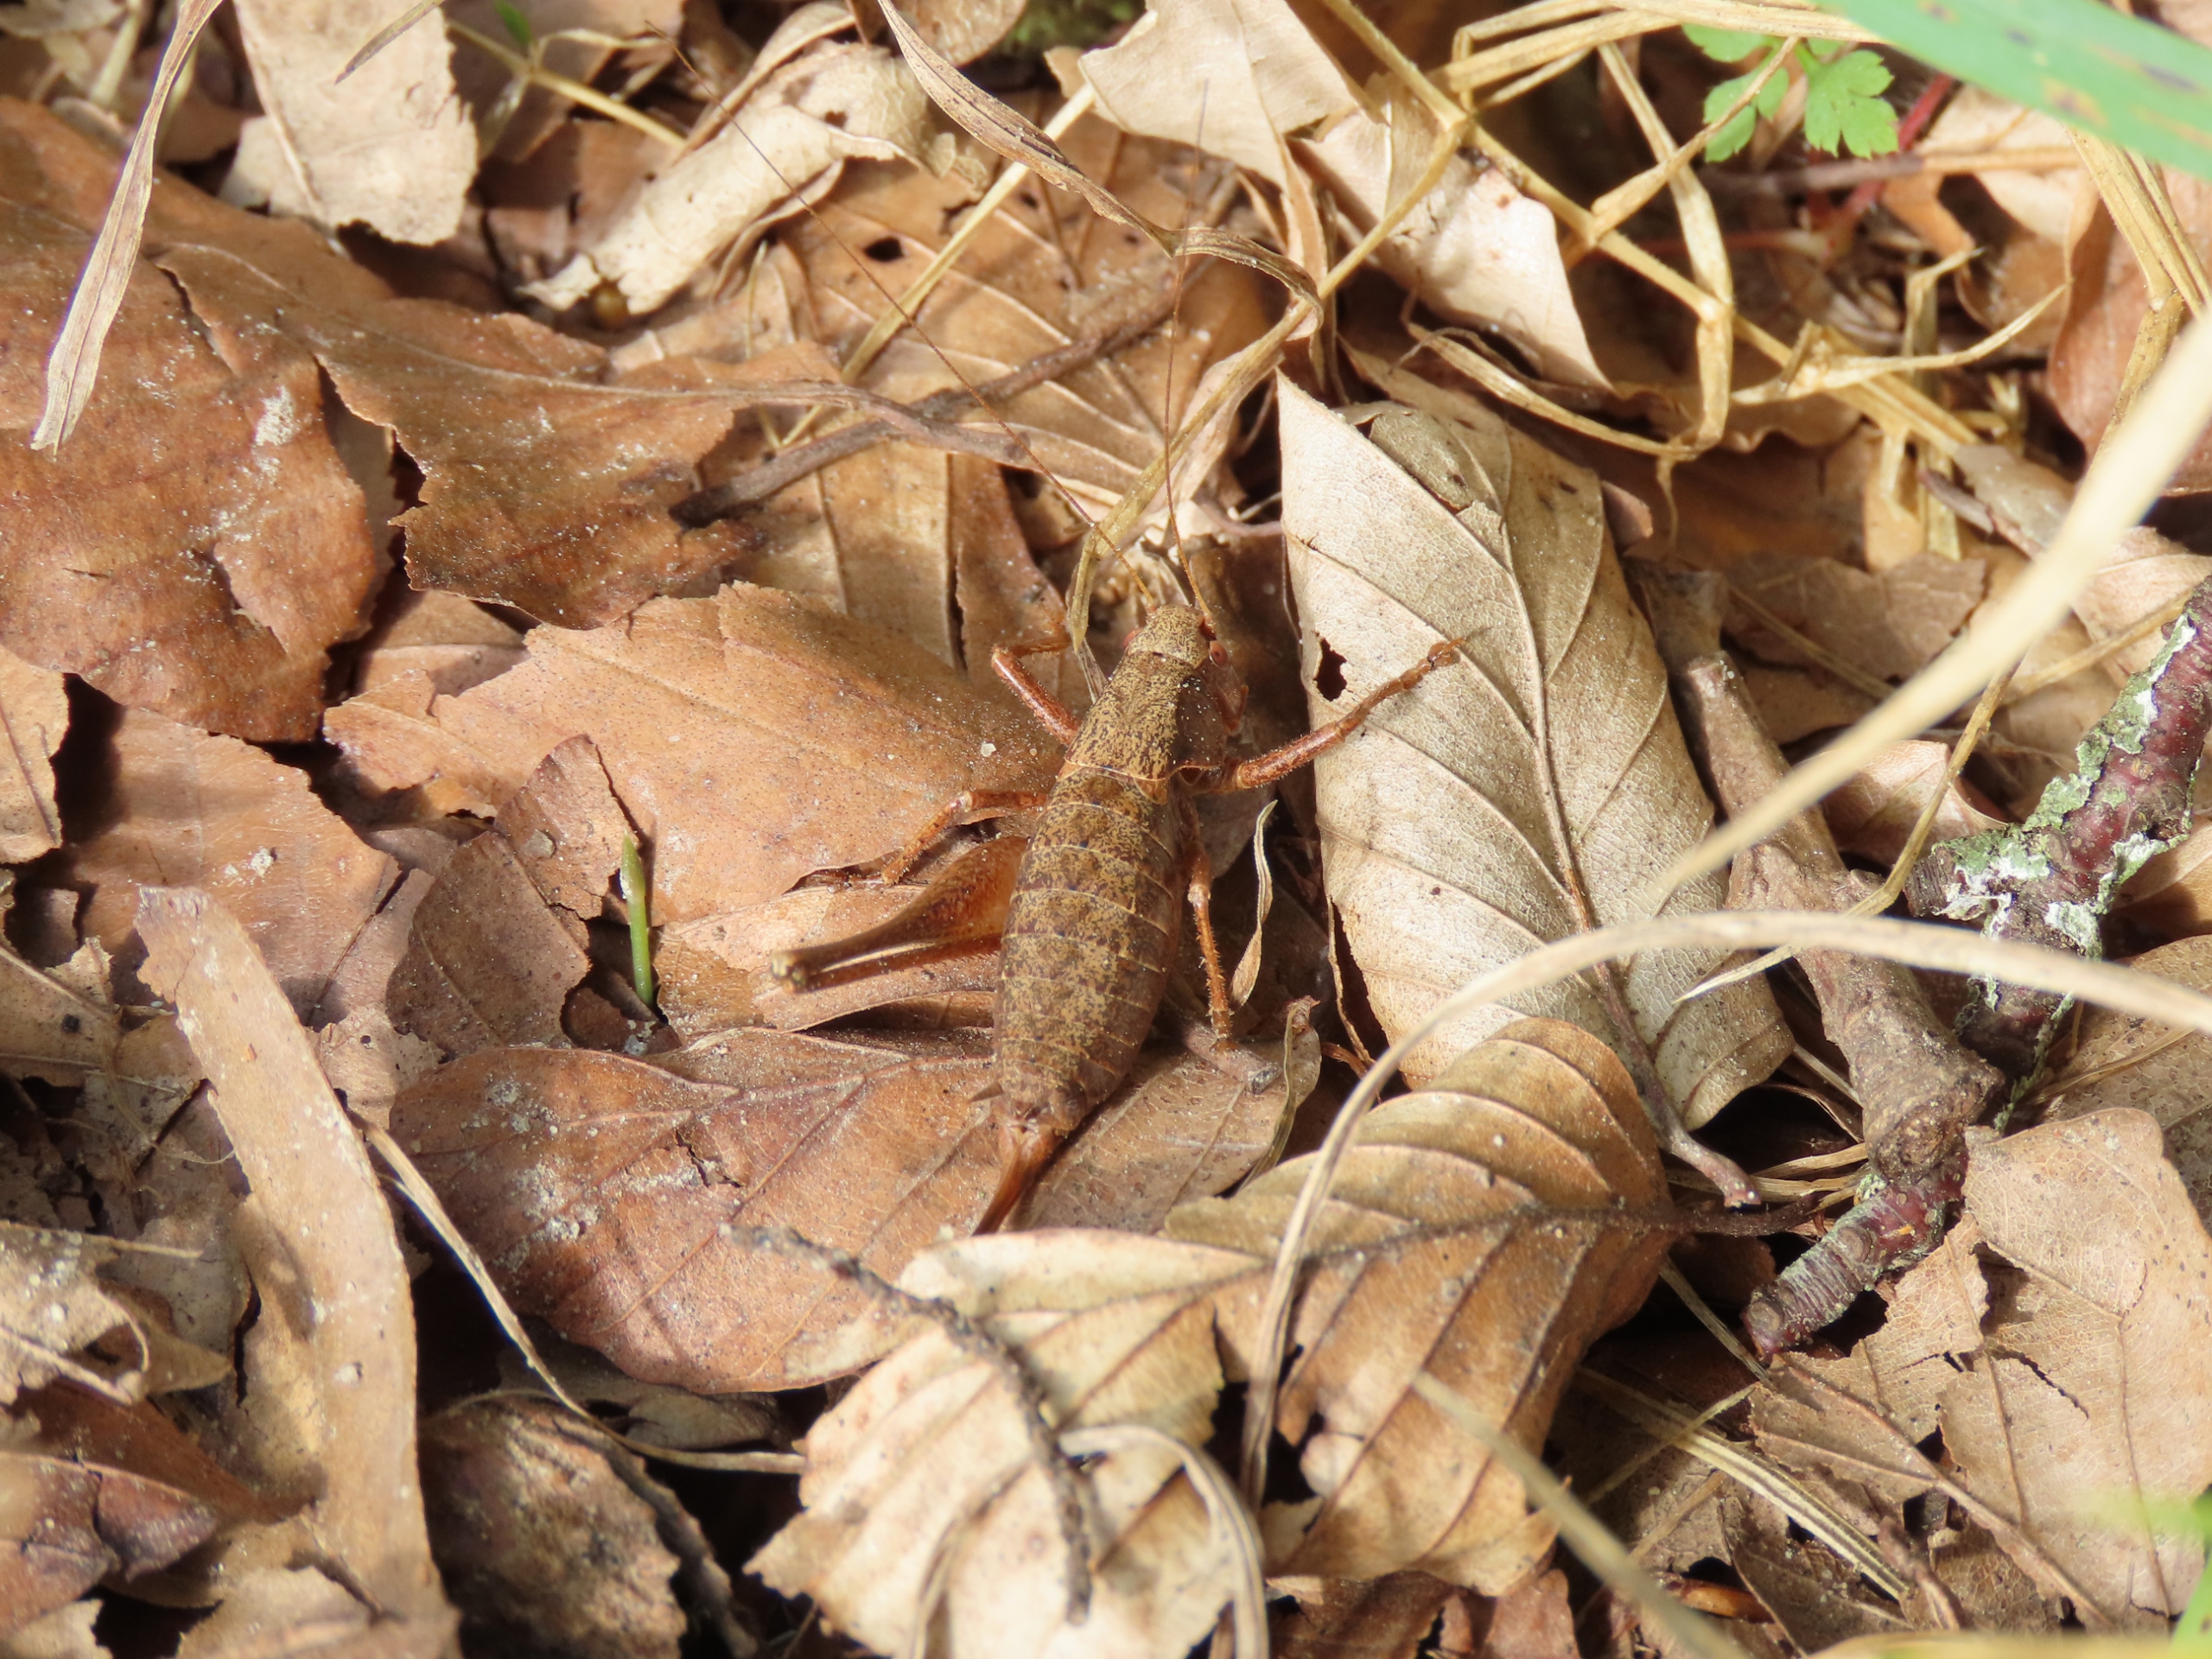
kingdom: Animalia
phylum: Arthropoda
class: Insecta
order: Orthoptera
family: Tettigoniidae
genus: Pholidoptera
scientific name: Pholidoptera griseoaptera
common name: Buskgræshoppe
